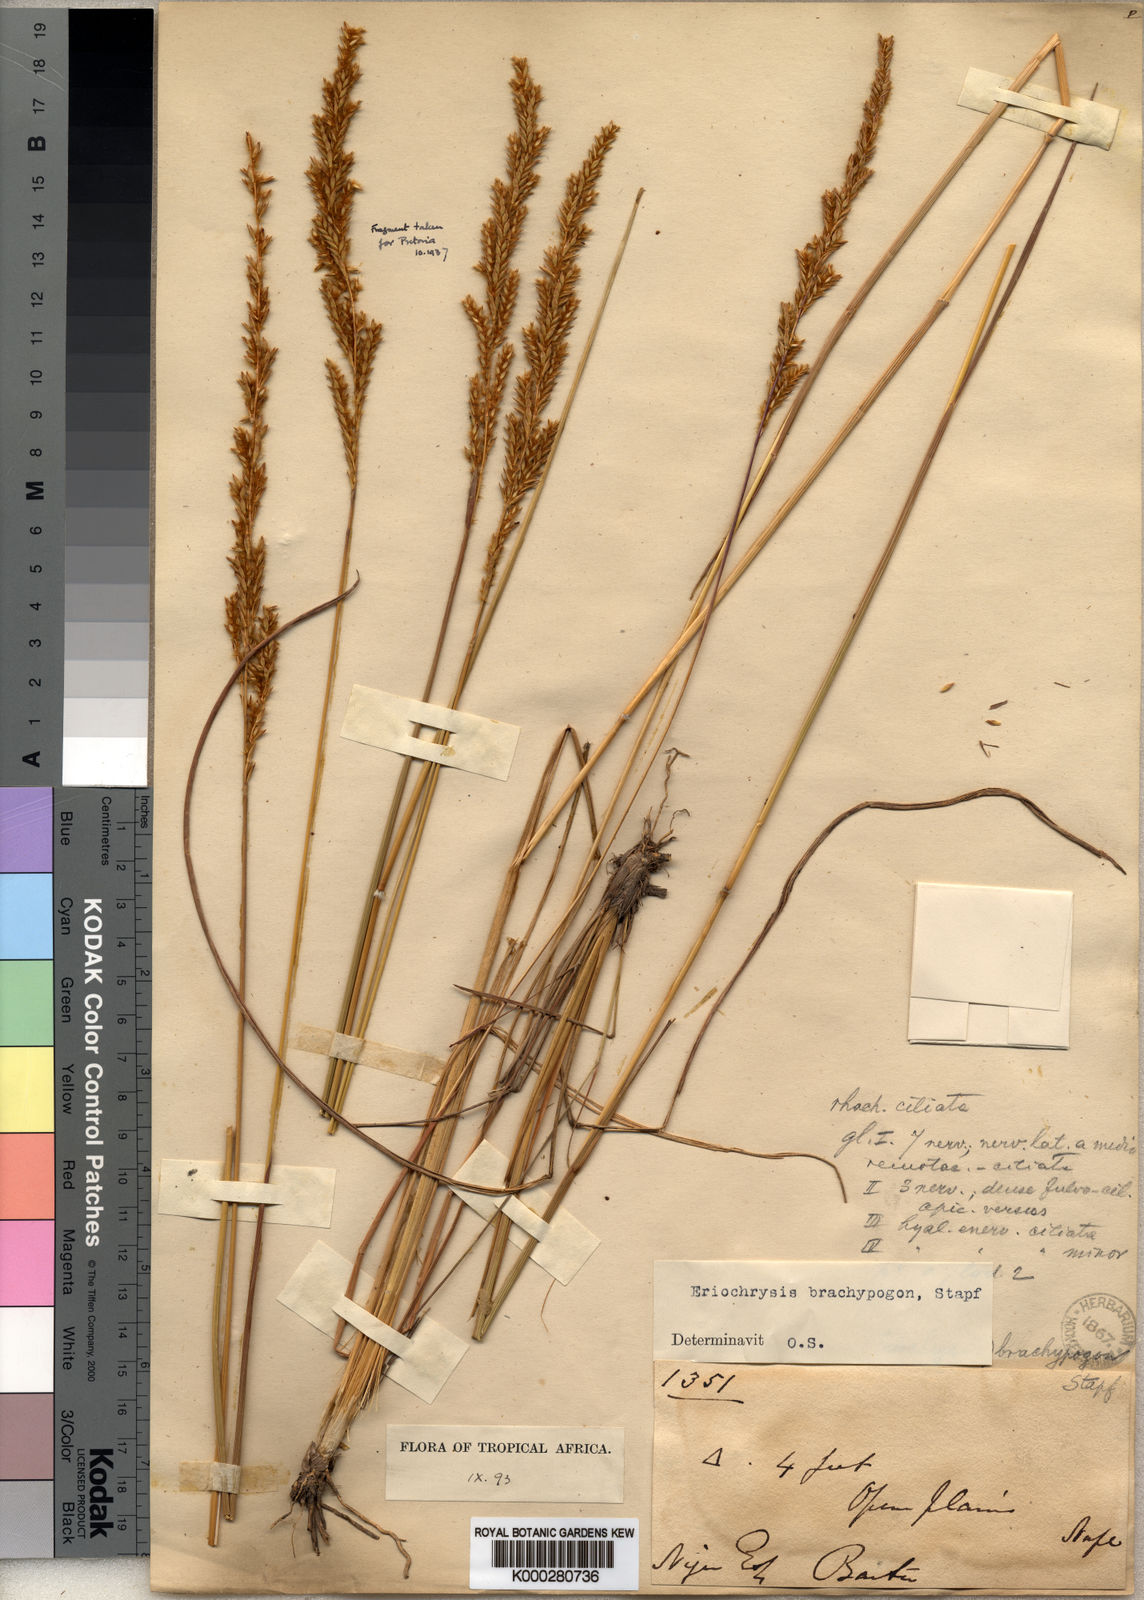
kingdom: Plantae
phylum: Tracheophyta
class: Liliopsida
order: Poales
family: Poaceae
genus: Eriochrysis
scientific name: Eriochrysis brachypogon
